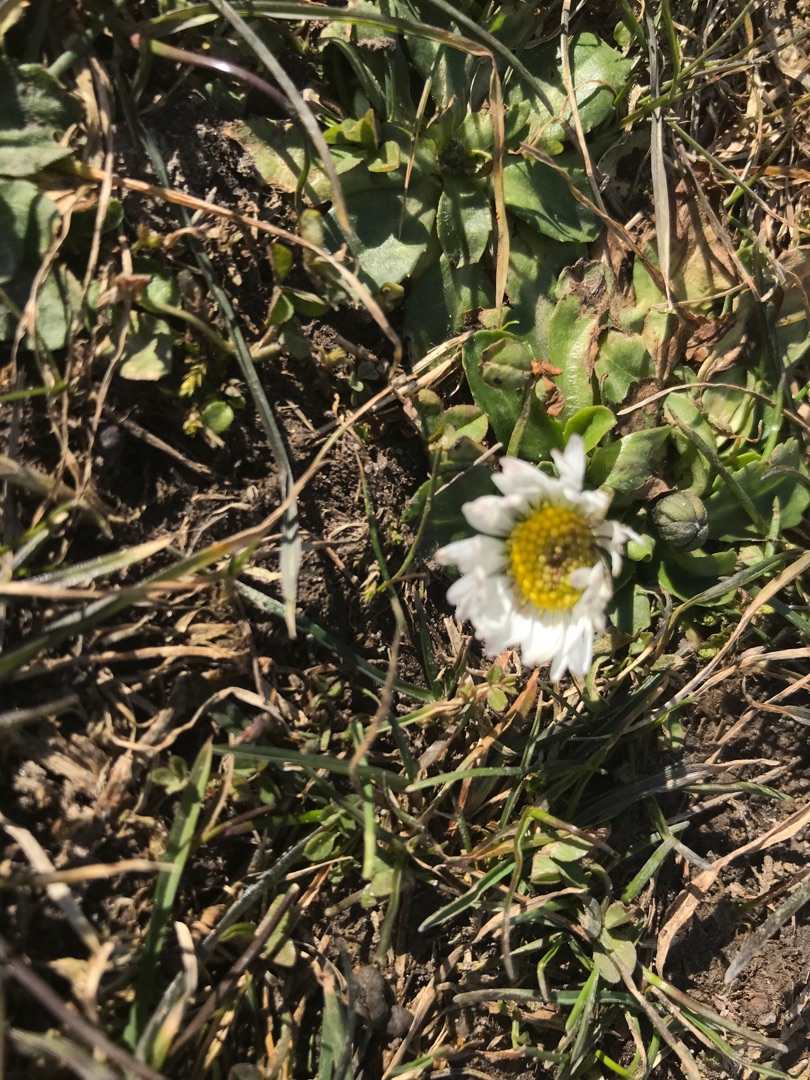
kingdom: Plantae
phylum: Tracheophyta
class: Magnoliopsida
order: Asterales
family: Asteraceae
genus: Bellis
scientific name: Bellis perennis
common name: Tusindfryd
